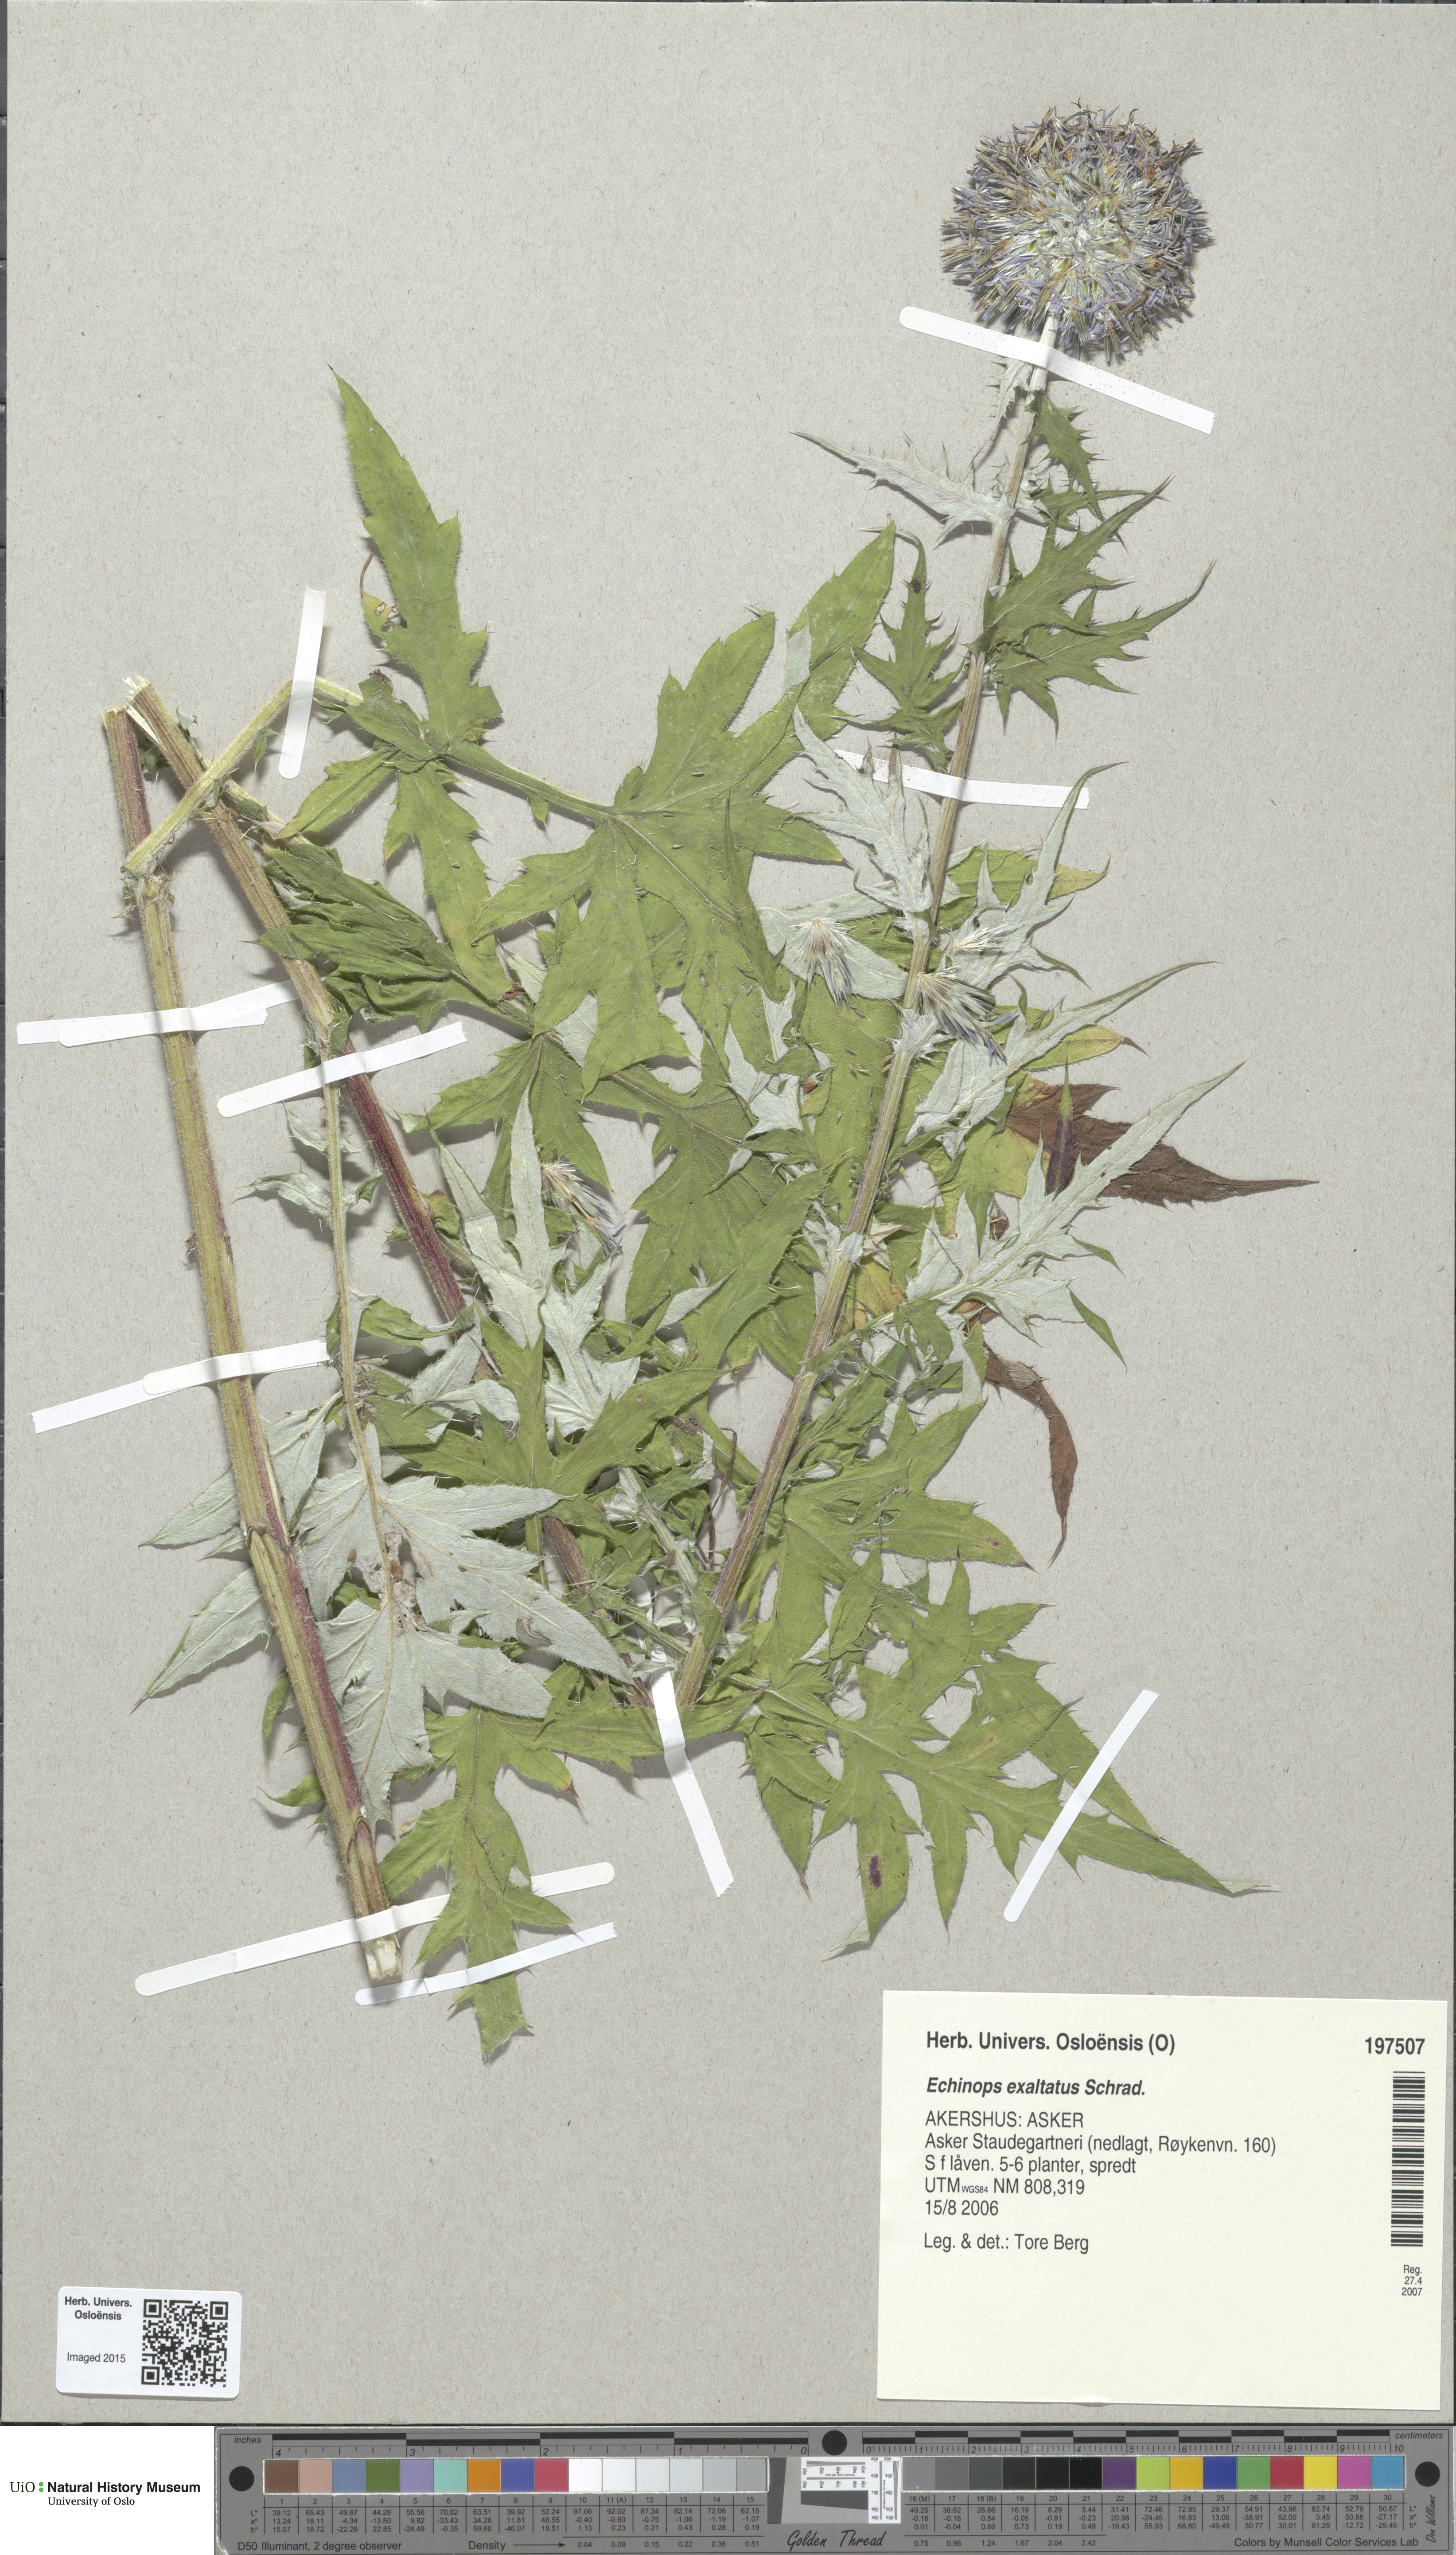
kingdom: Plantae
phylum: Tracheophyta
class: Magnoliopsida
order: Asterales
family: Asteraceae
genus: Echinops
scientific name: Echinops exaltatus
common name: Globe-thistle
